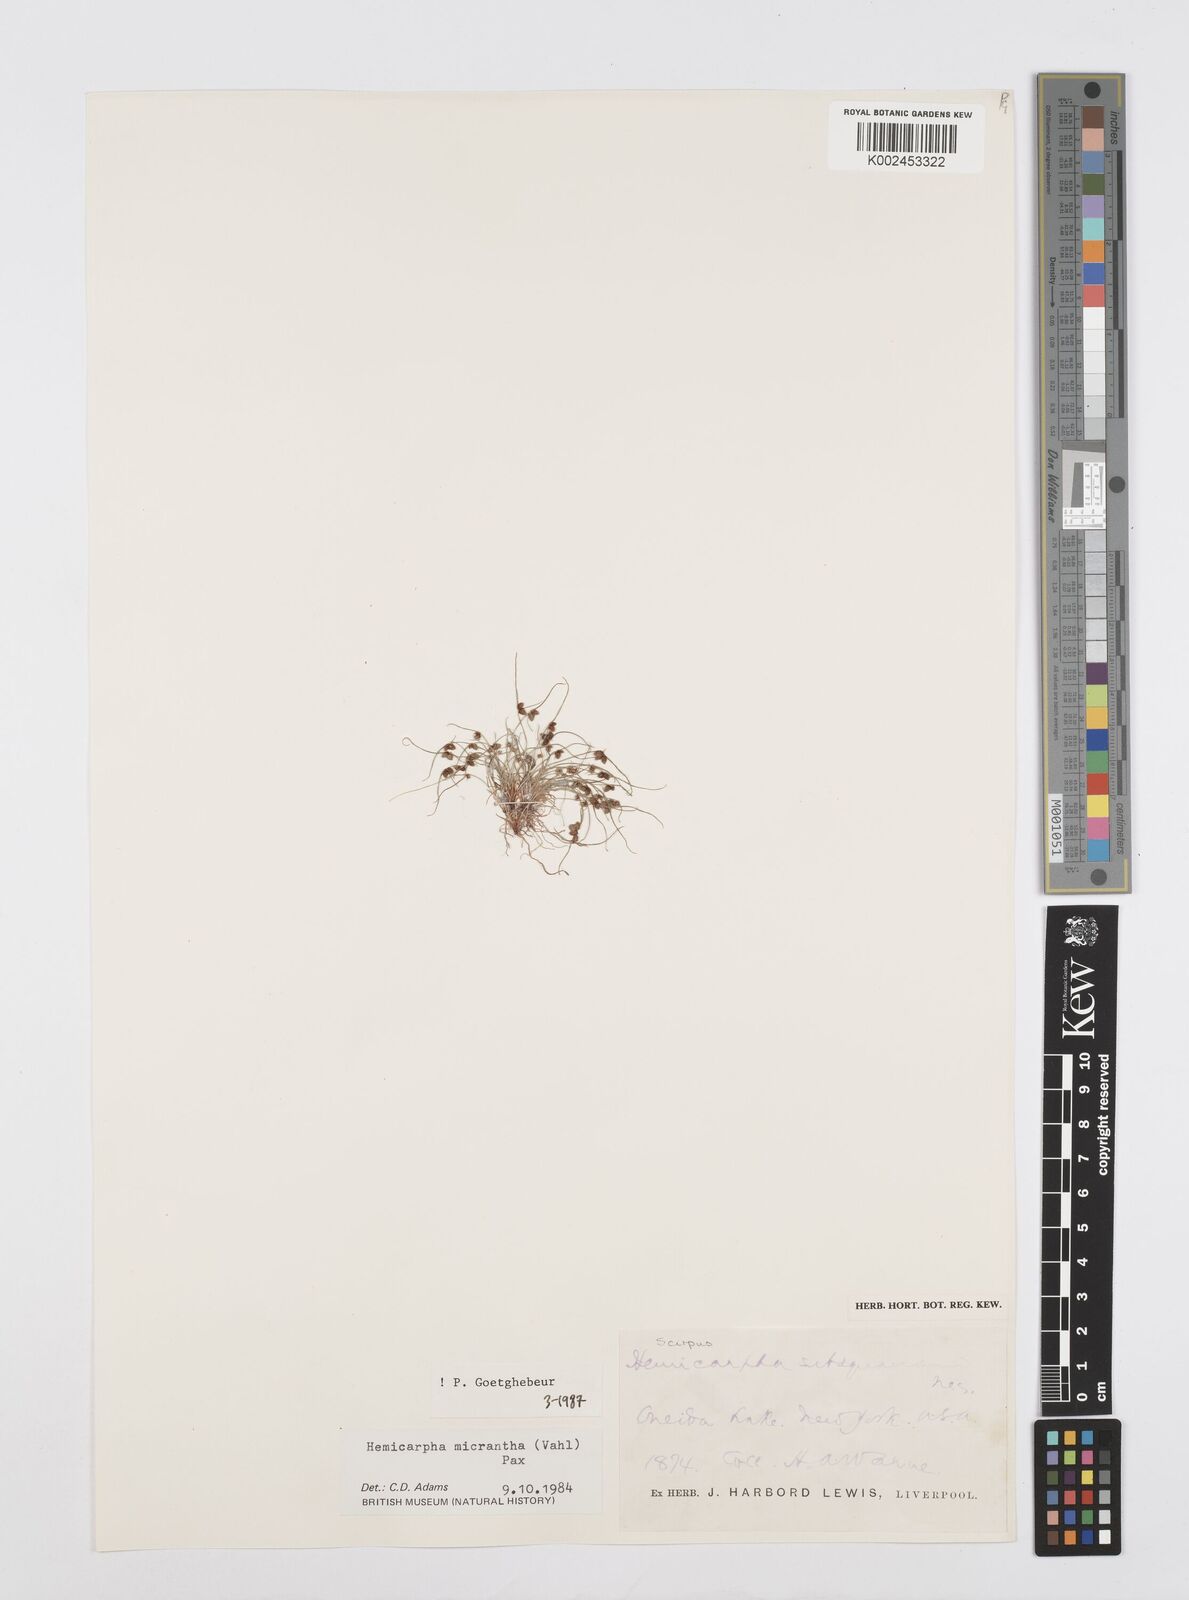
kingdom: Plantae
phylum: Tracheophyta
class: Liliopsida
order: Poales
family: Cyperaceae
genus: Cyperus
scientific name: Cyperus dentatus
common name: Dentate umbrella sedge
